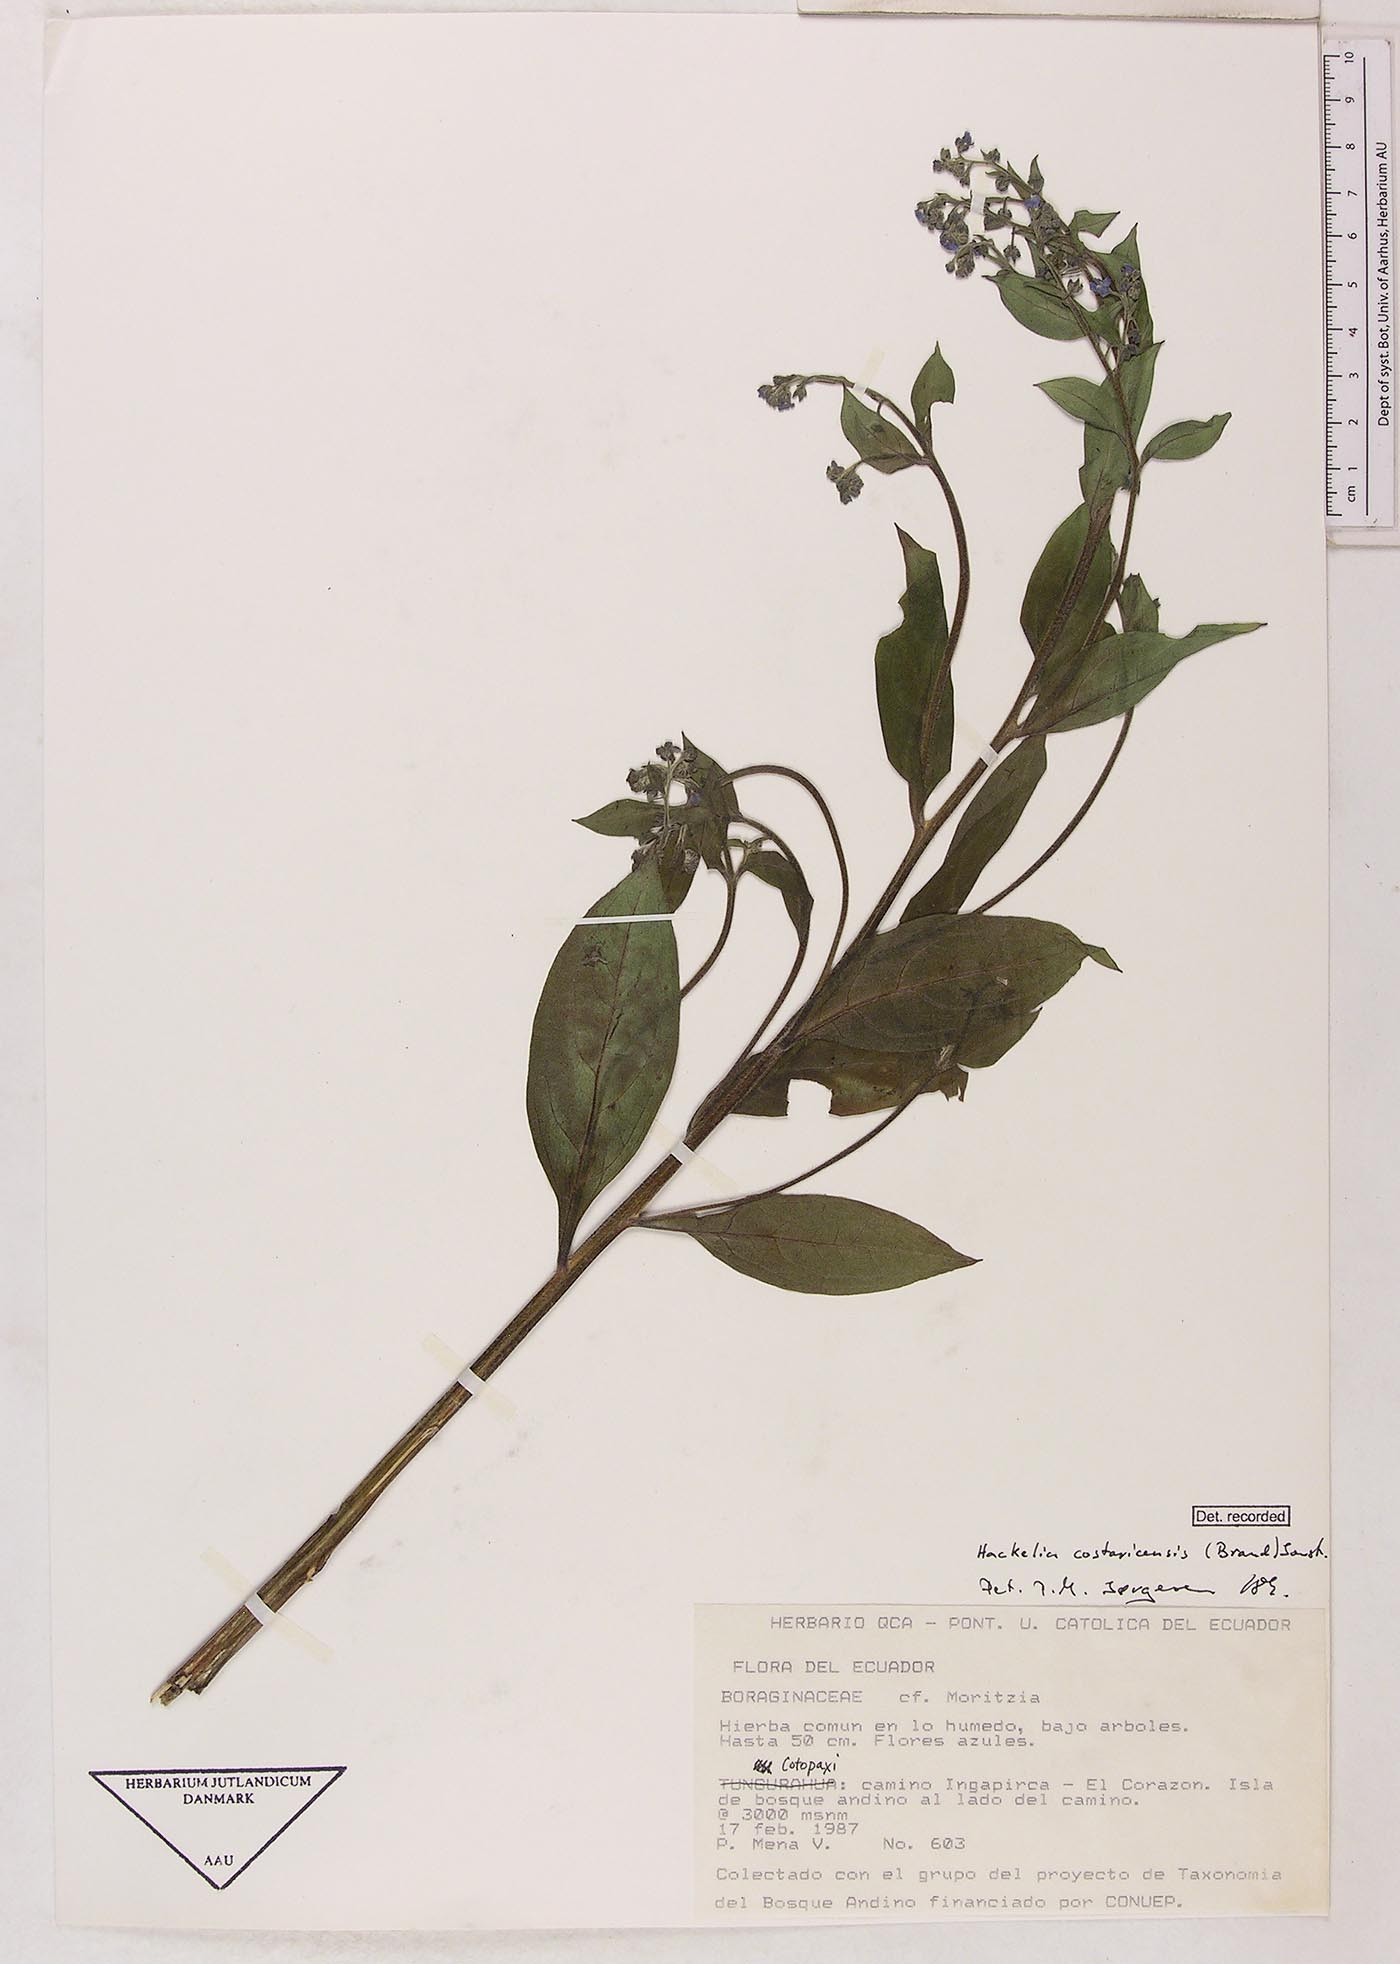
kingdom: Plantae
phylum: Tracheophyta
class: Magnoliopsida
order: Boraginales
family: Boraginaceae
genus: Hackelia
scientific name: Hackelia revoluta
